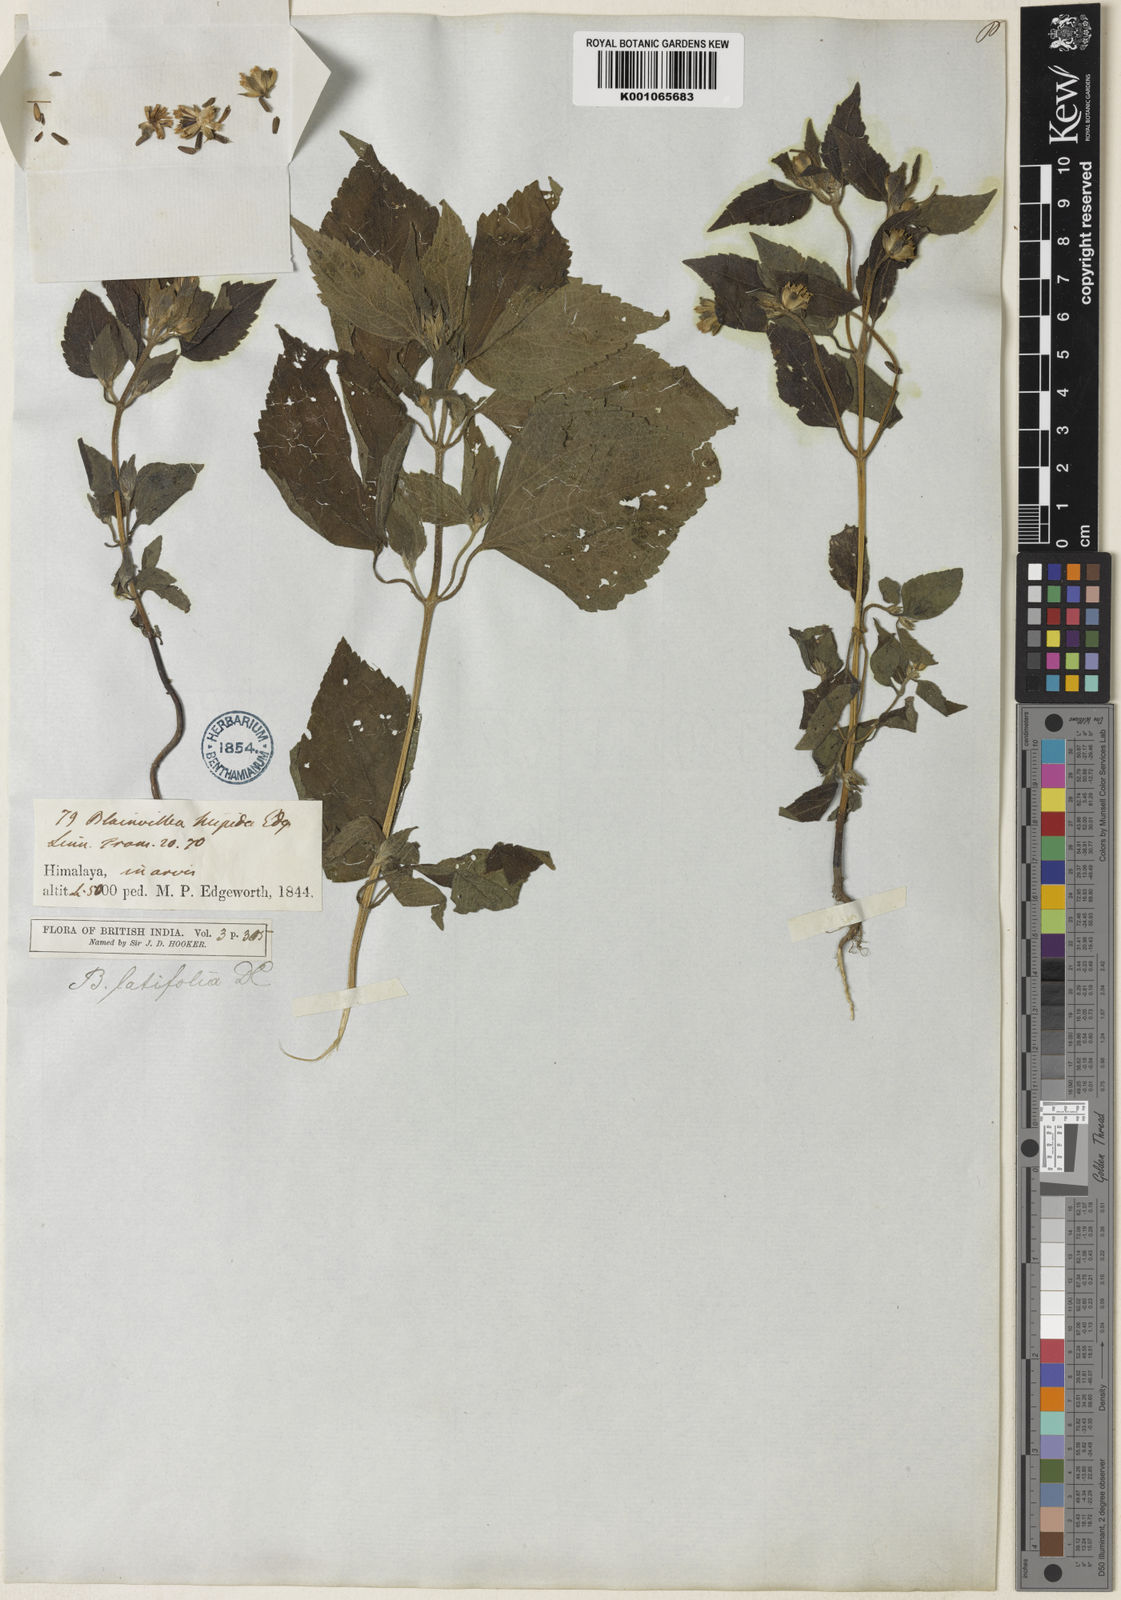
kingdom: Plantae
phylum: Tracheophyta
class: Magnoliopsida
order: Asterales
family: Asteraceae
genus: Blainvillea
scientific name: Blainvillea acmella
